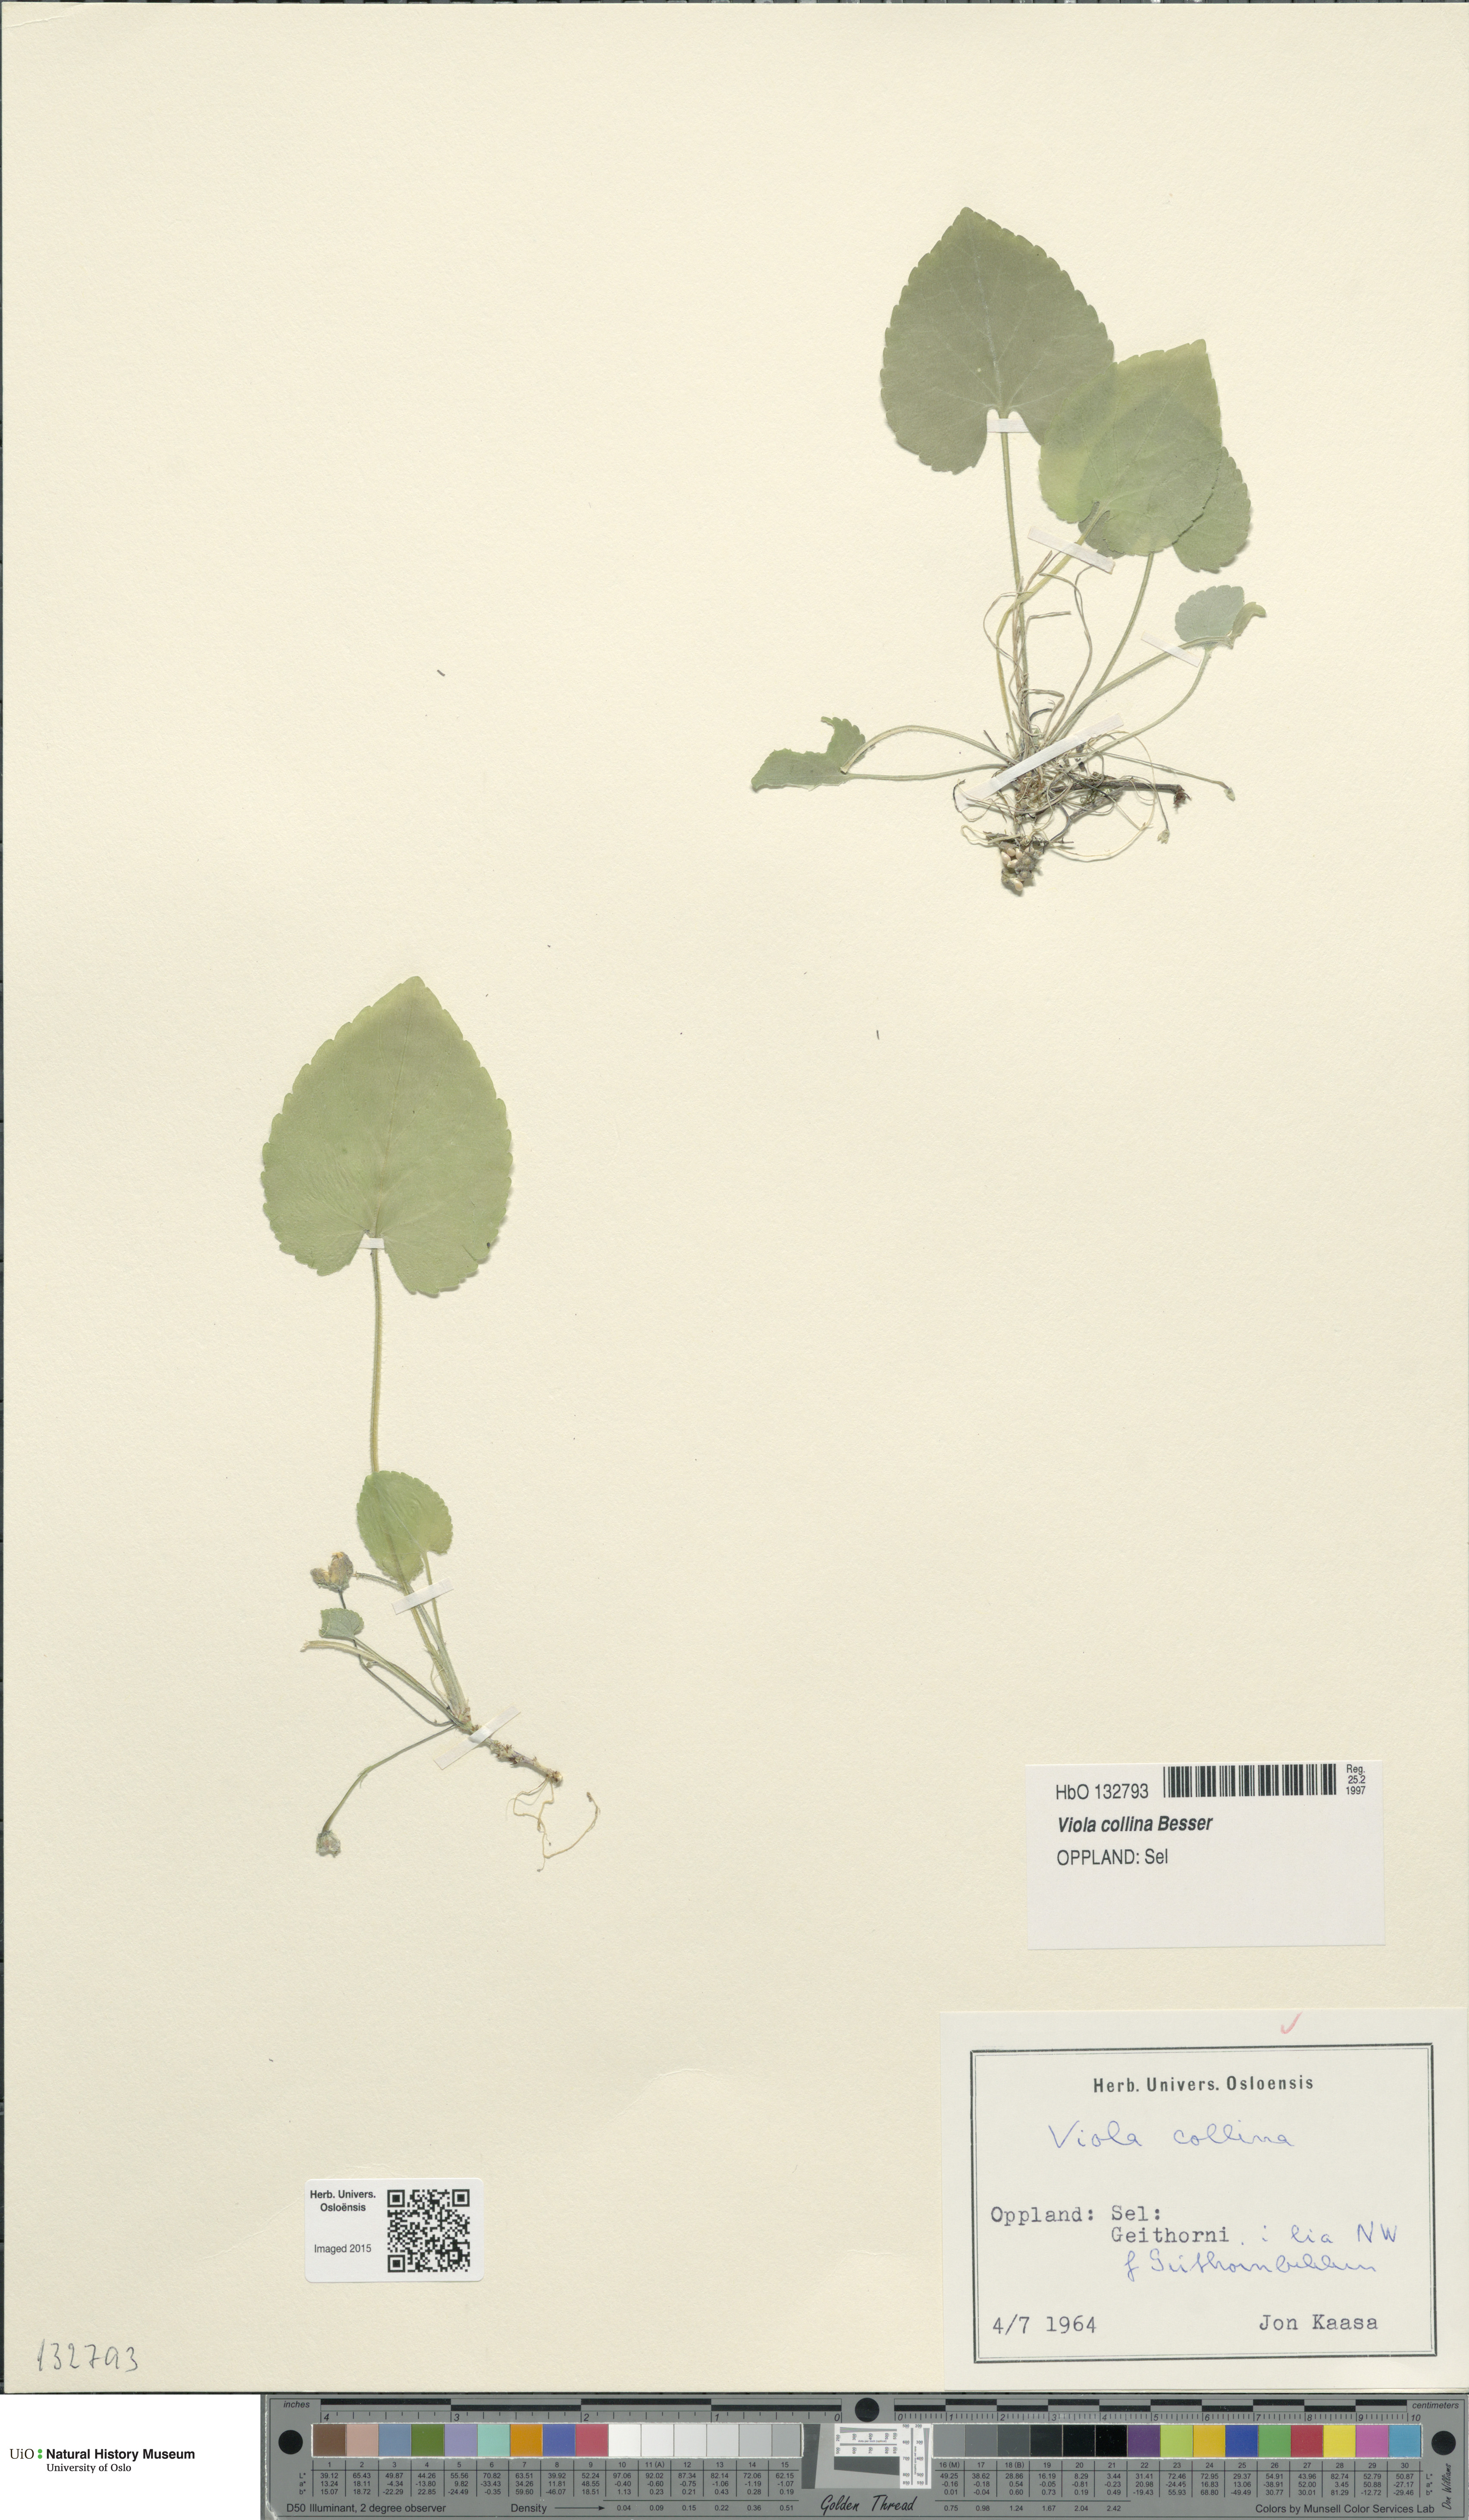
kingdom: Plantae
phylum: Tracheophyta
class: Magnoliopsida
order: Malpighiales
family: Violaceae
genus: Viola
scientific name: Viola collina
